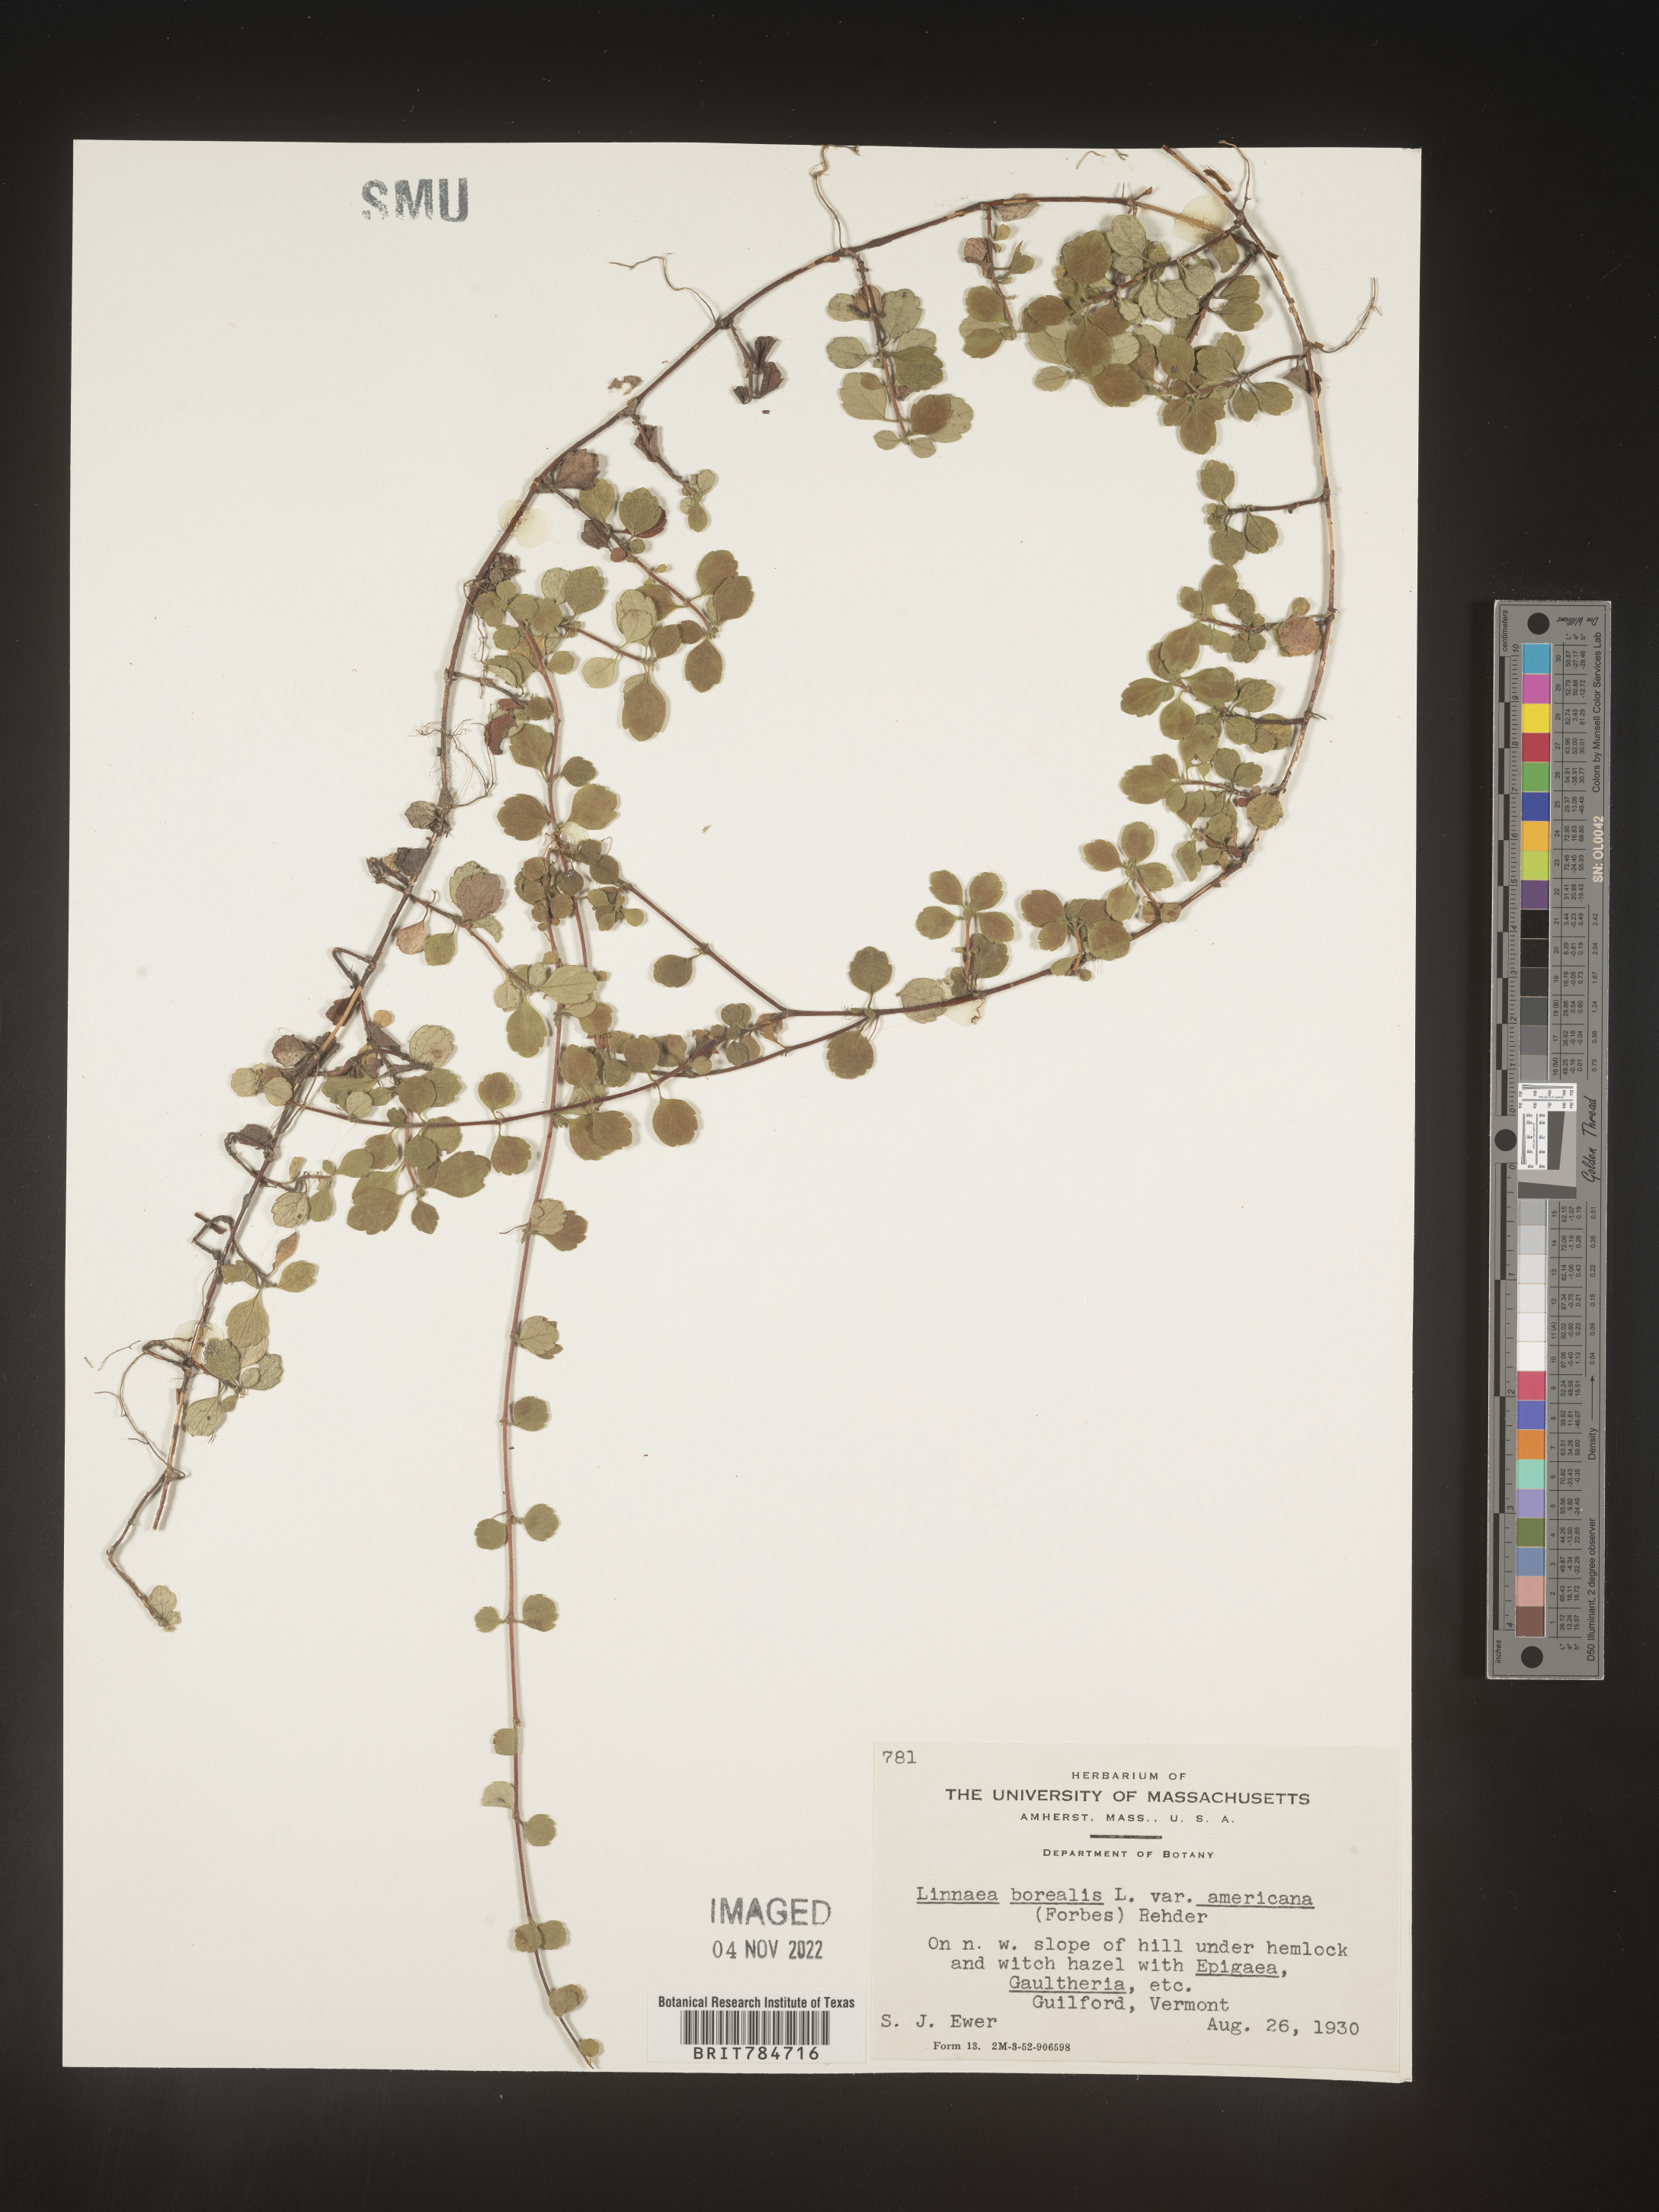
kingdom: Plantae
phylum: Tracheophyta
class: Magnoliopsida
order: Dipsacales
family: Caprifoliaceae
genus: Linnaea
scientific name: Linnaea borealis
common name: Twinflower
